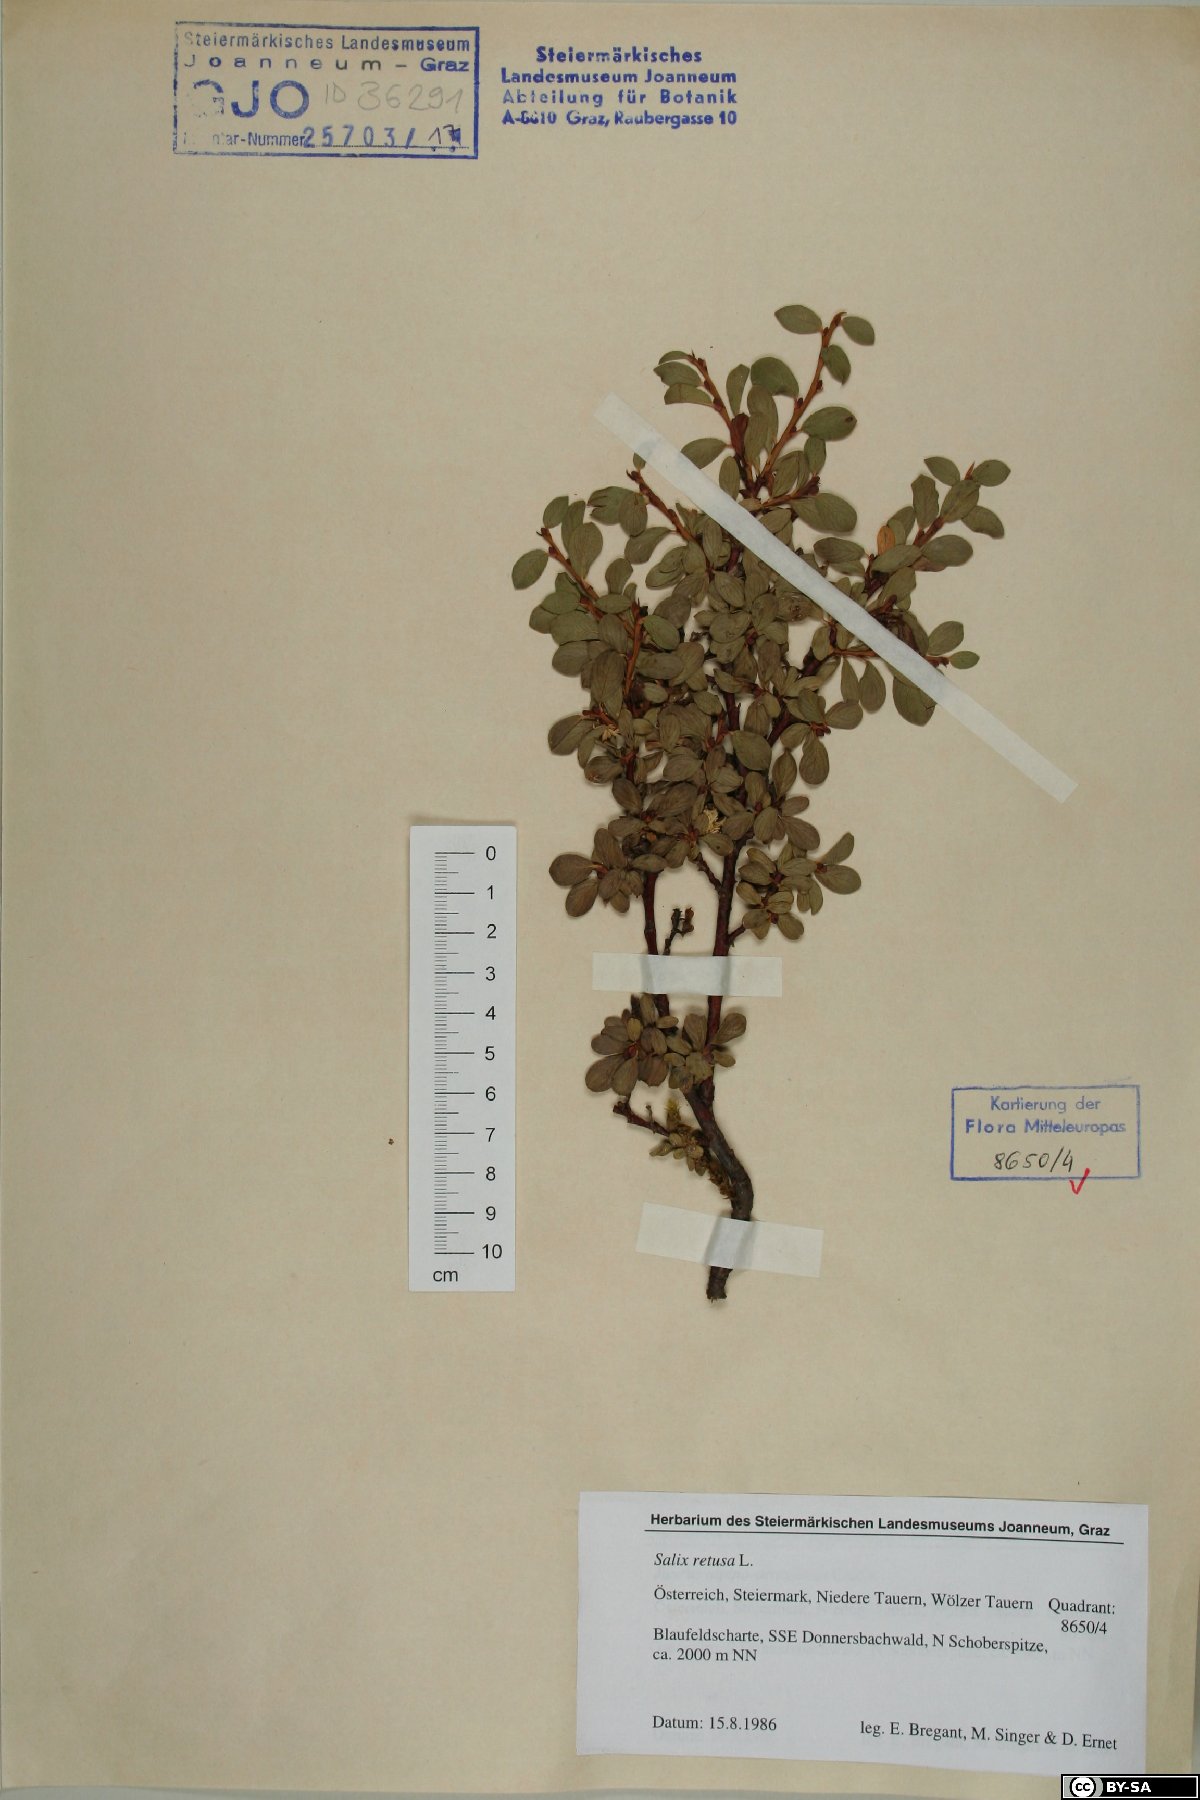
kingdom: Plantae
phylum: Tracheophyta
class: Magnoliopsida
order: Malpighiales
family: Salicaceae
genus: Salix
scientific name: Salix retusa
